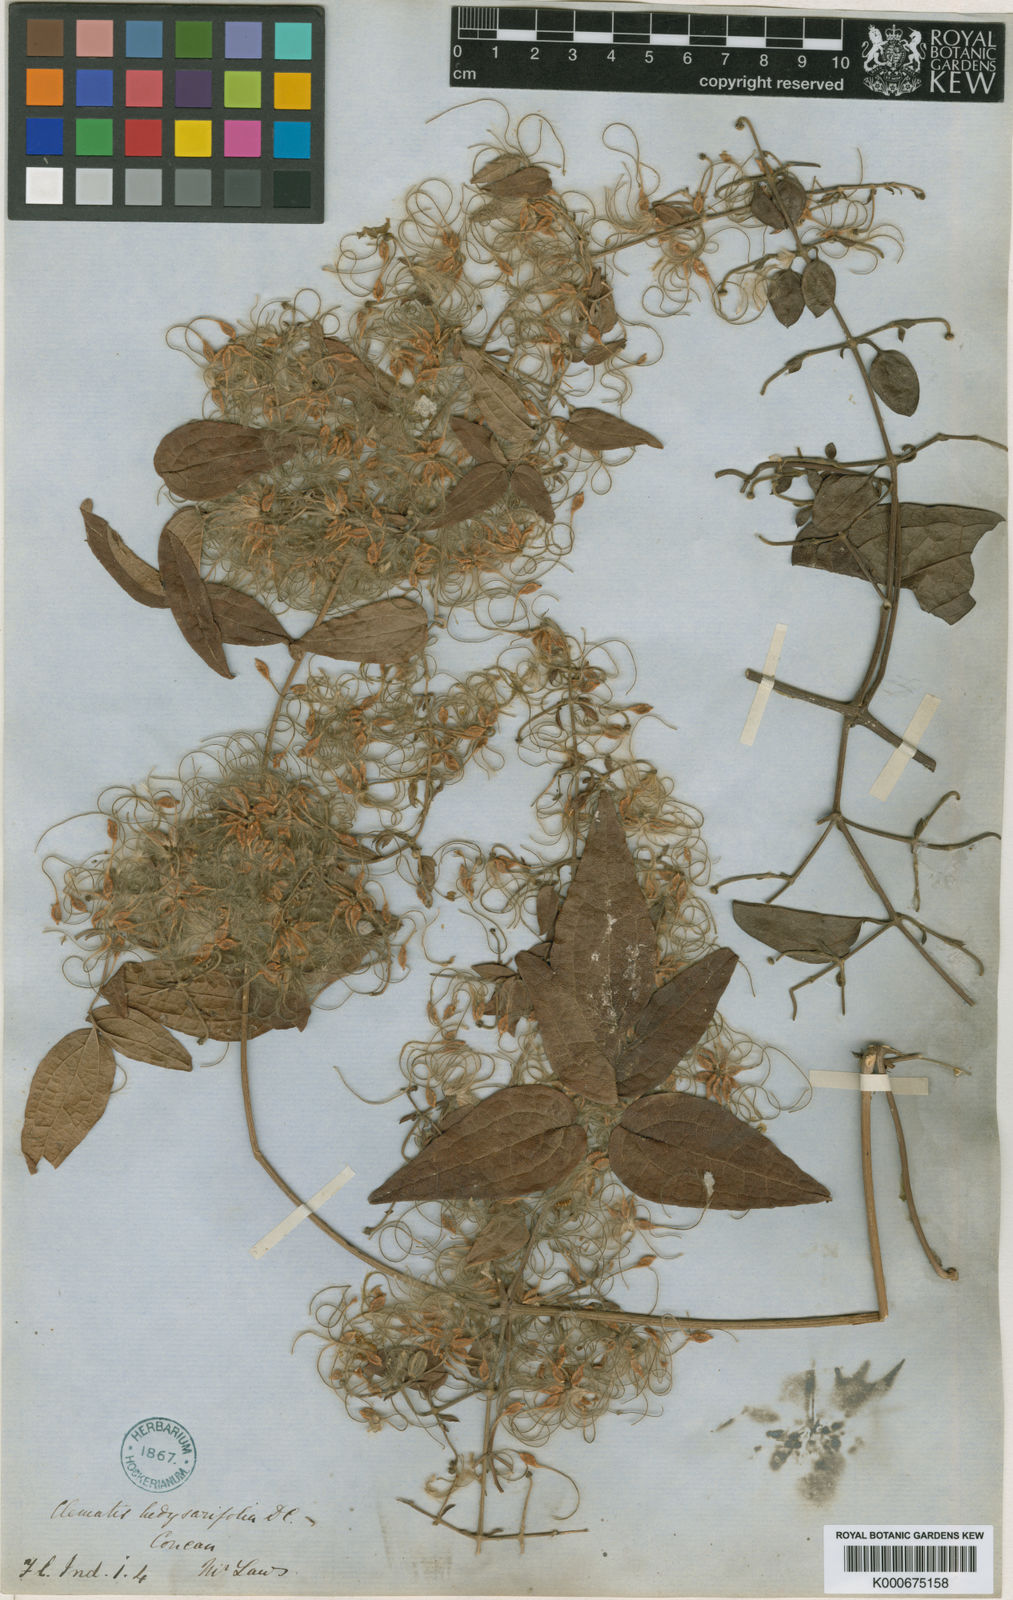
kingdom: Plantae
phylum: Tracheophyta
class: Magnoliopsida
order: Ranunculales
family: Ranunculaceae
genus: Clematis
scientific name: Clematis hedysarifolia
